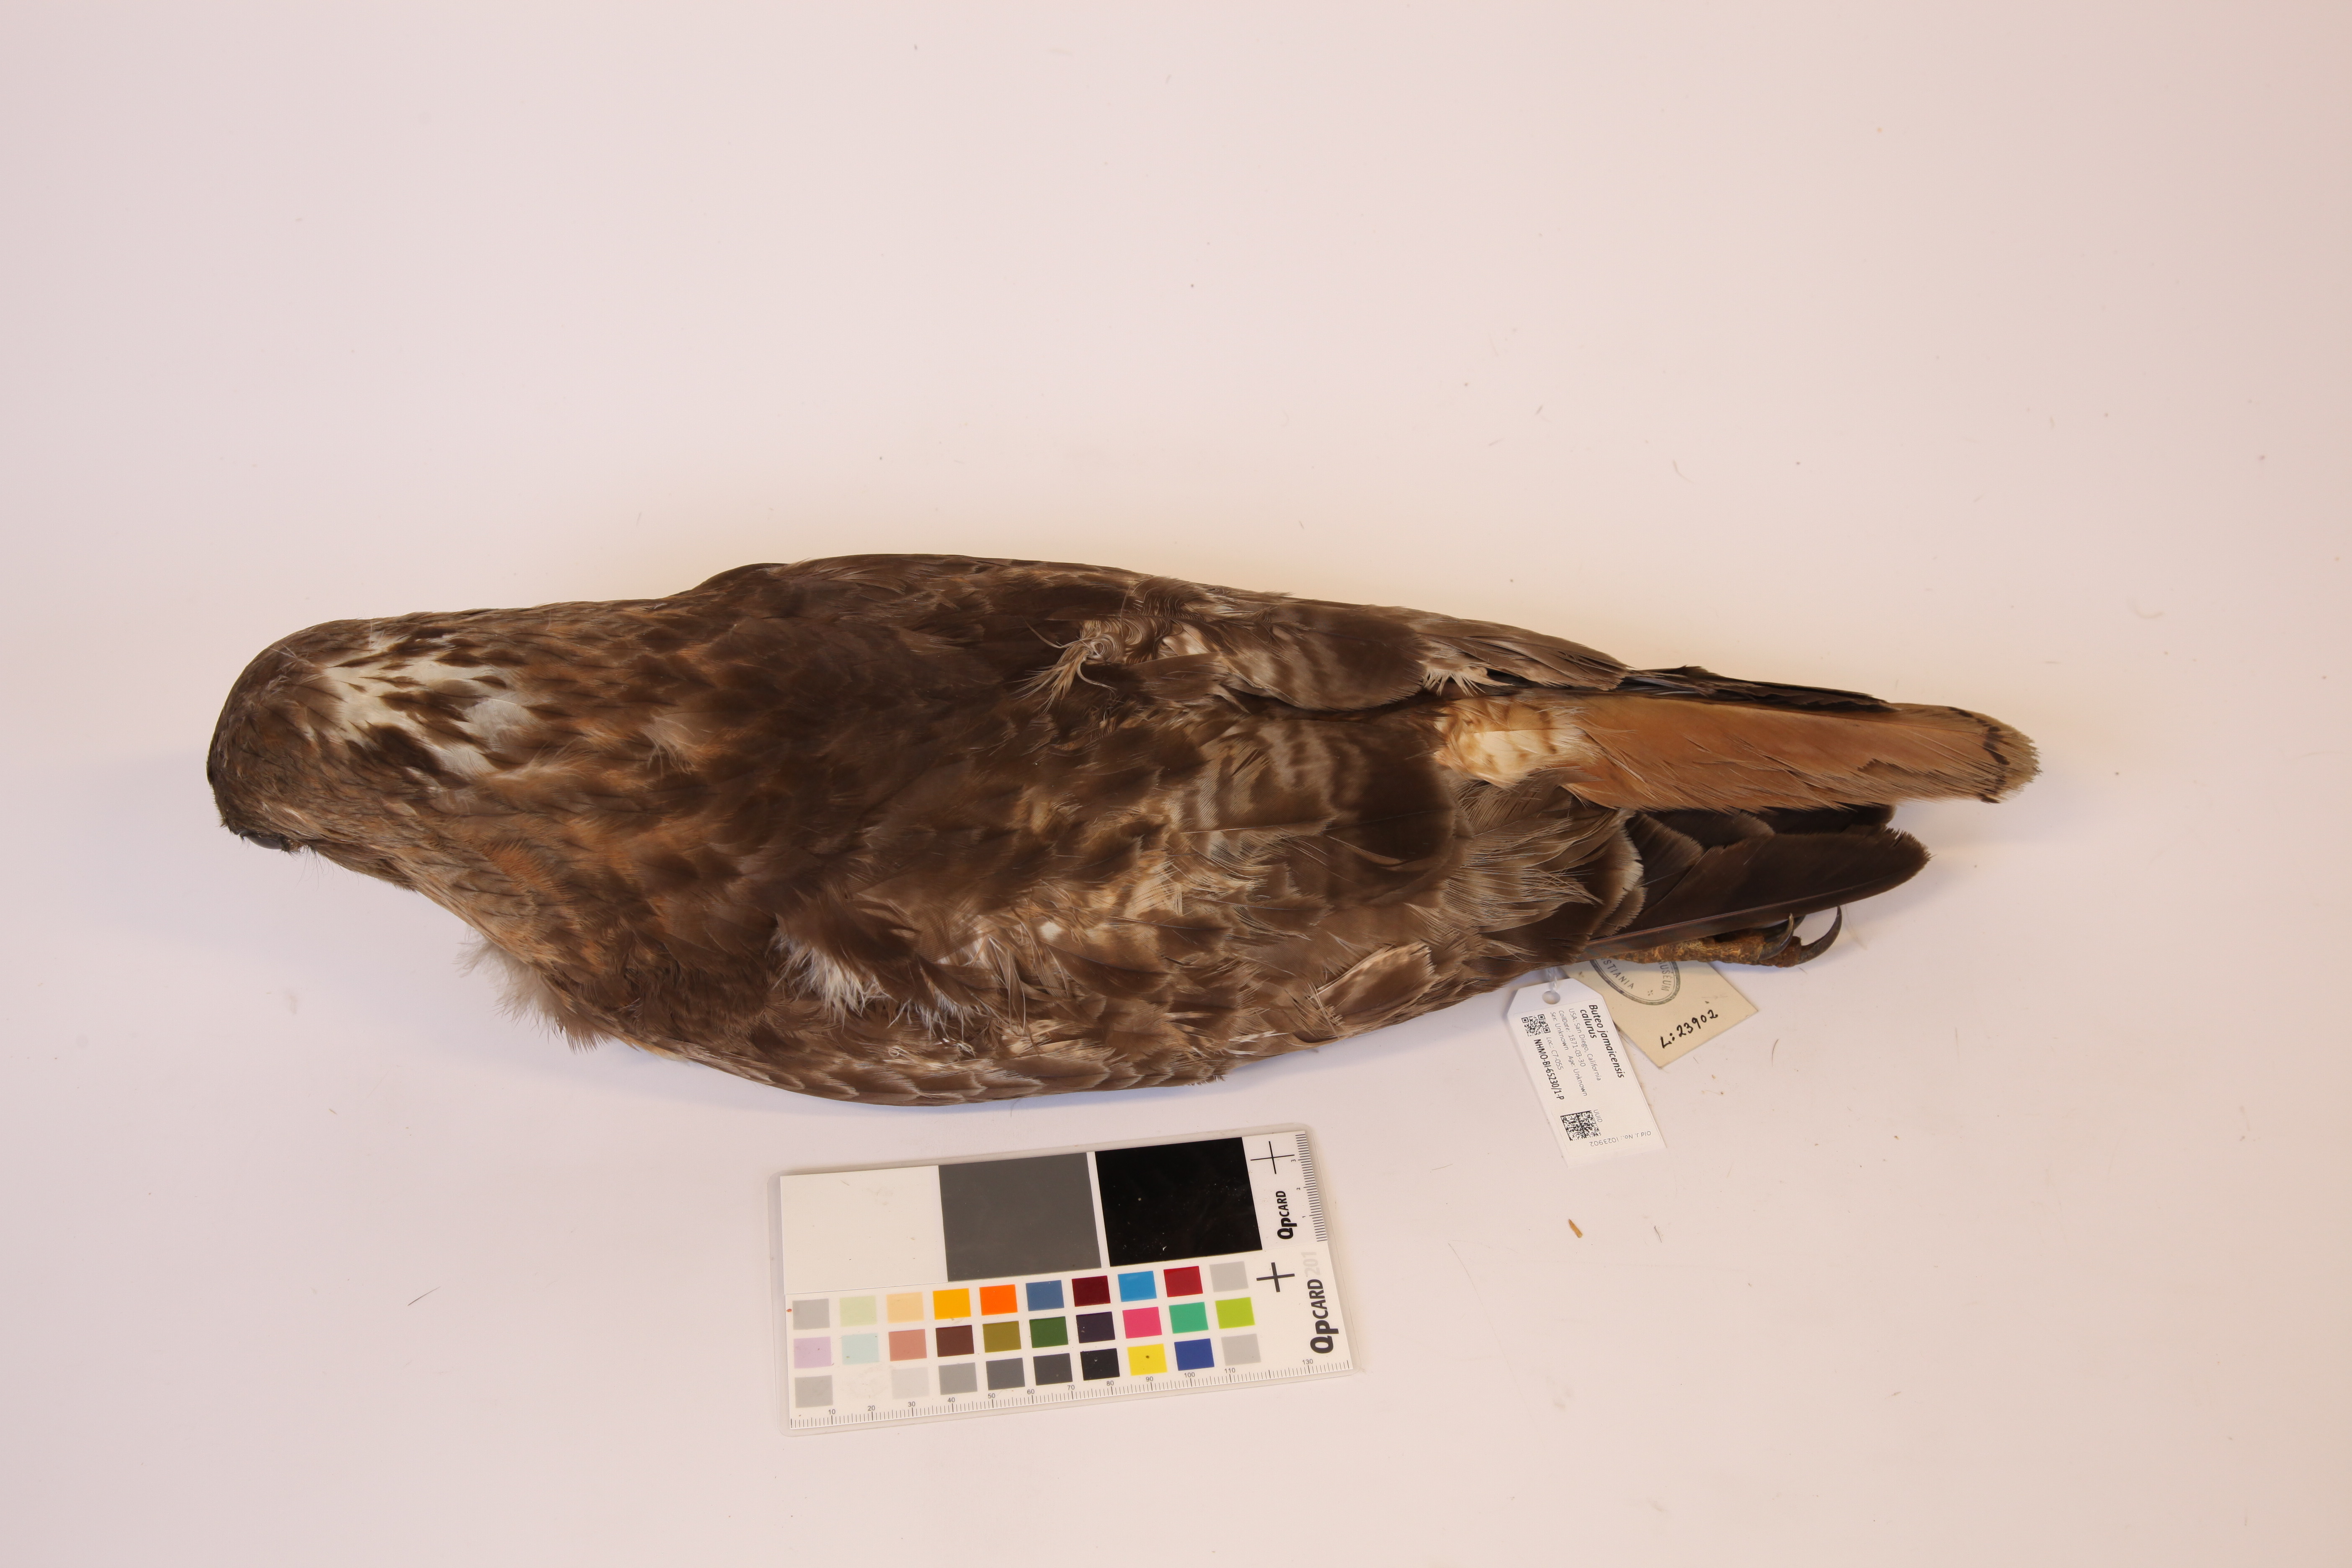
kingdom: Animalia
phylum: Chordata
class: Aves
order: Accipitriformes
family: Accipitridae
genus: Buteo
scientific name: Buteo jamaicensis
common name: Red-tailed hawk
